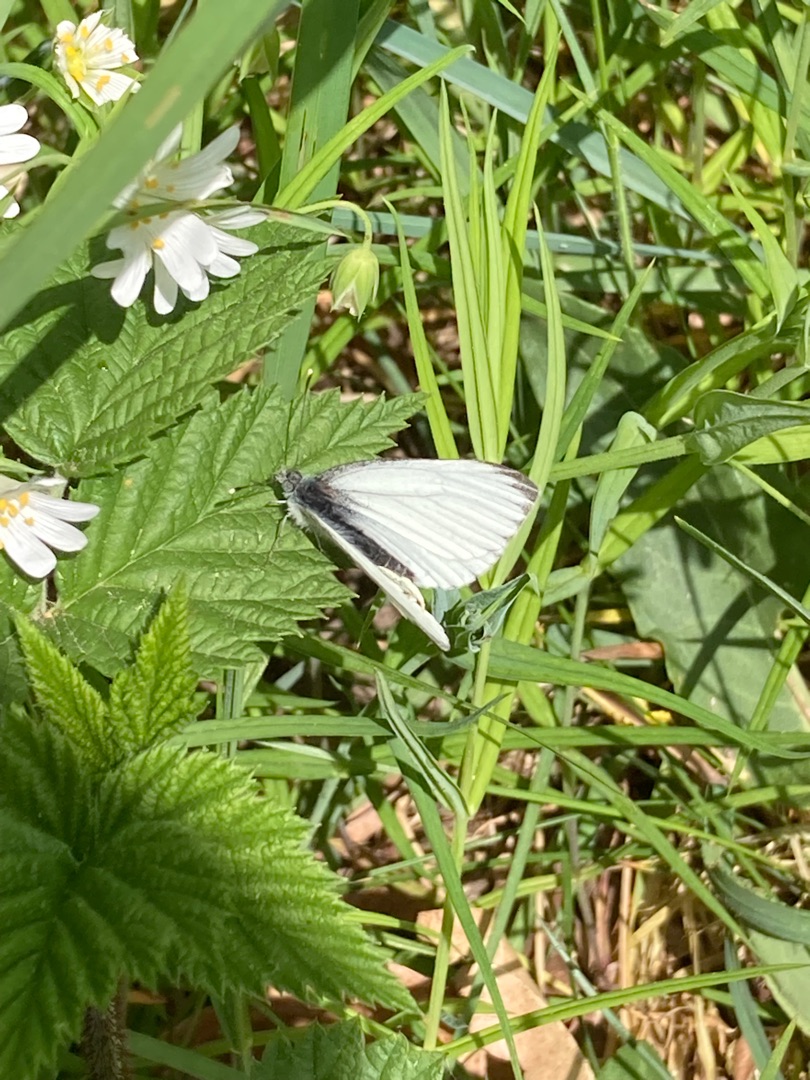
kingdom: Animalia
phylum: Arthropoda
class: Insecta
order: Lepidoptera
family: Pieridae
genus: Pieris
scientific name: Pieris napi
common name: Grønåret kålsommerfugl
